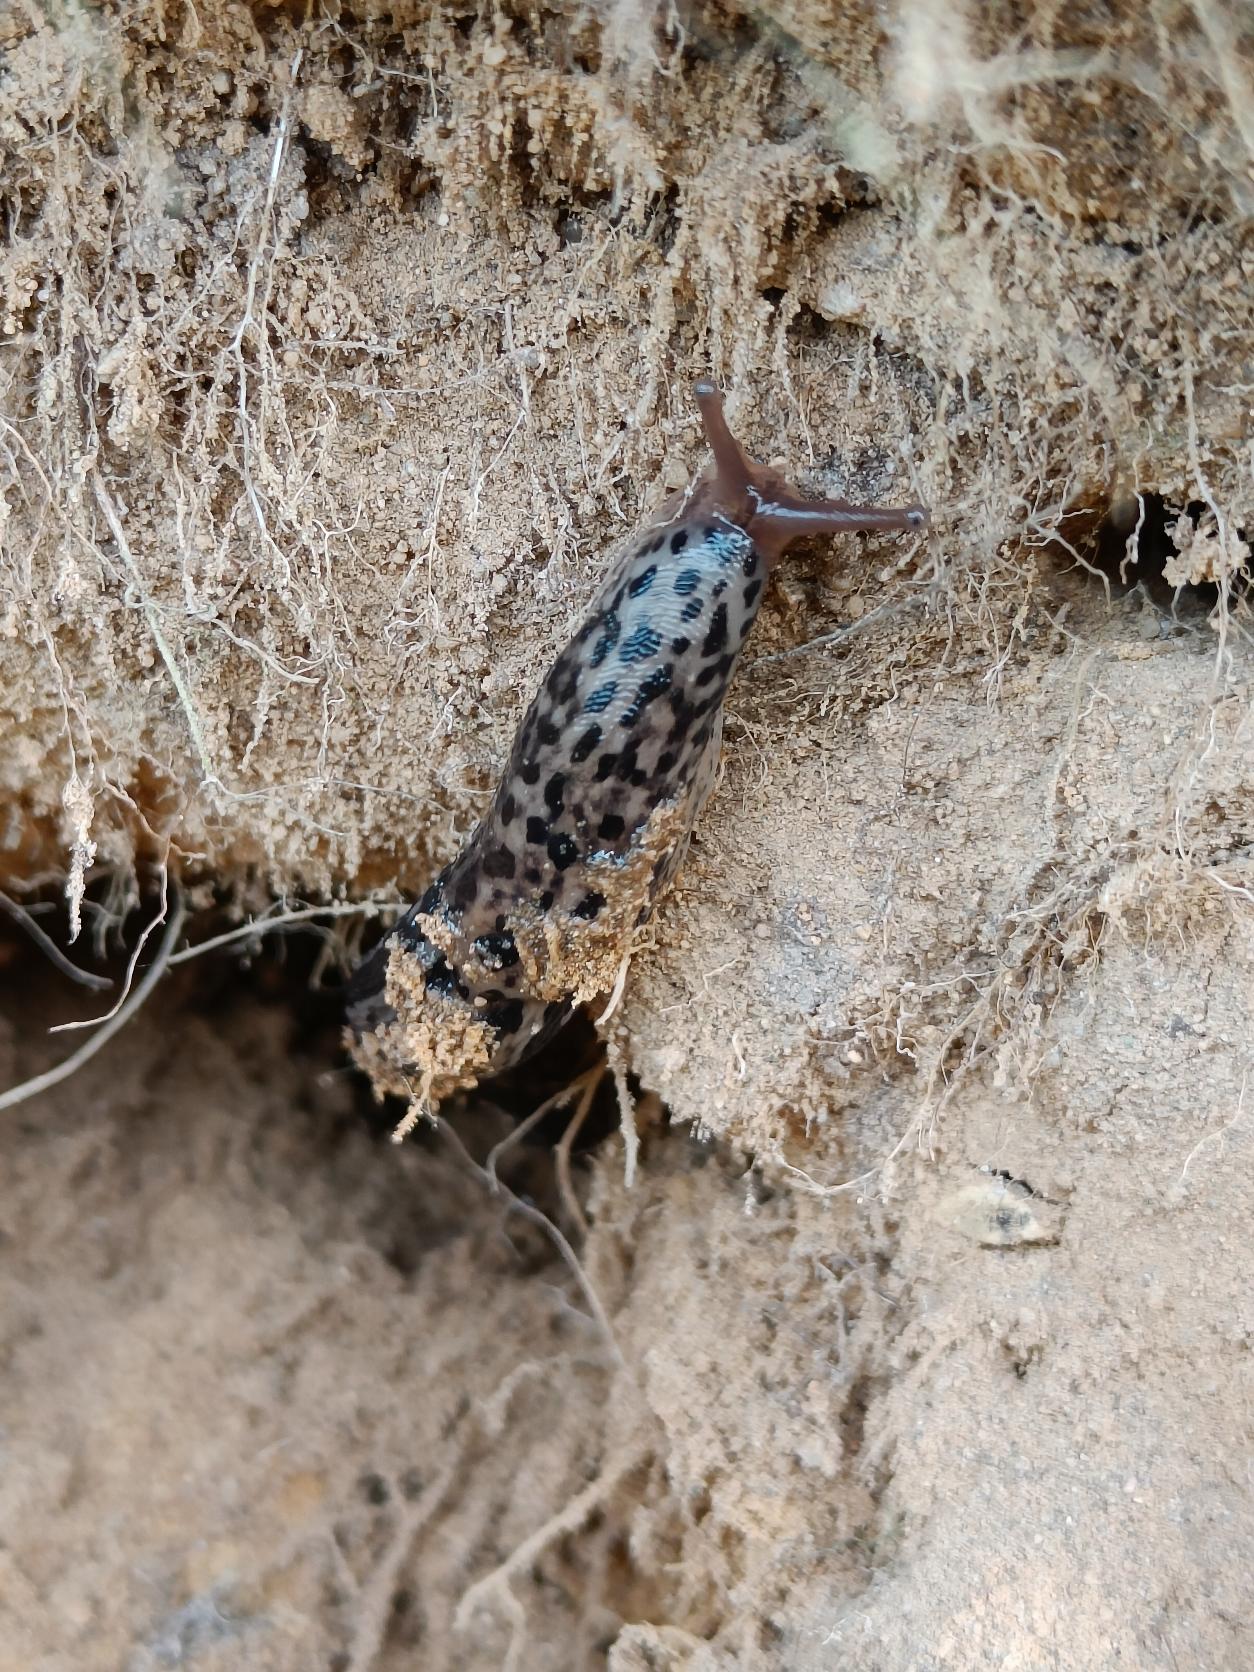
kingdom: Animalia
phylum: Mollusca
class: Gastropoda
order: Stylommatophora
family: Limacidae
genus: Limax
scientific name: Limax maximus
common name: Pantersnegl
